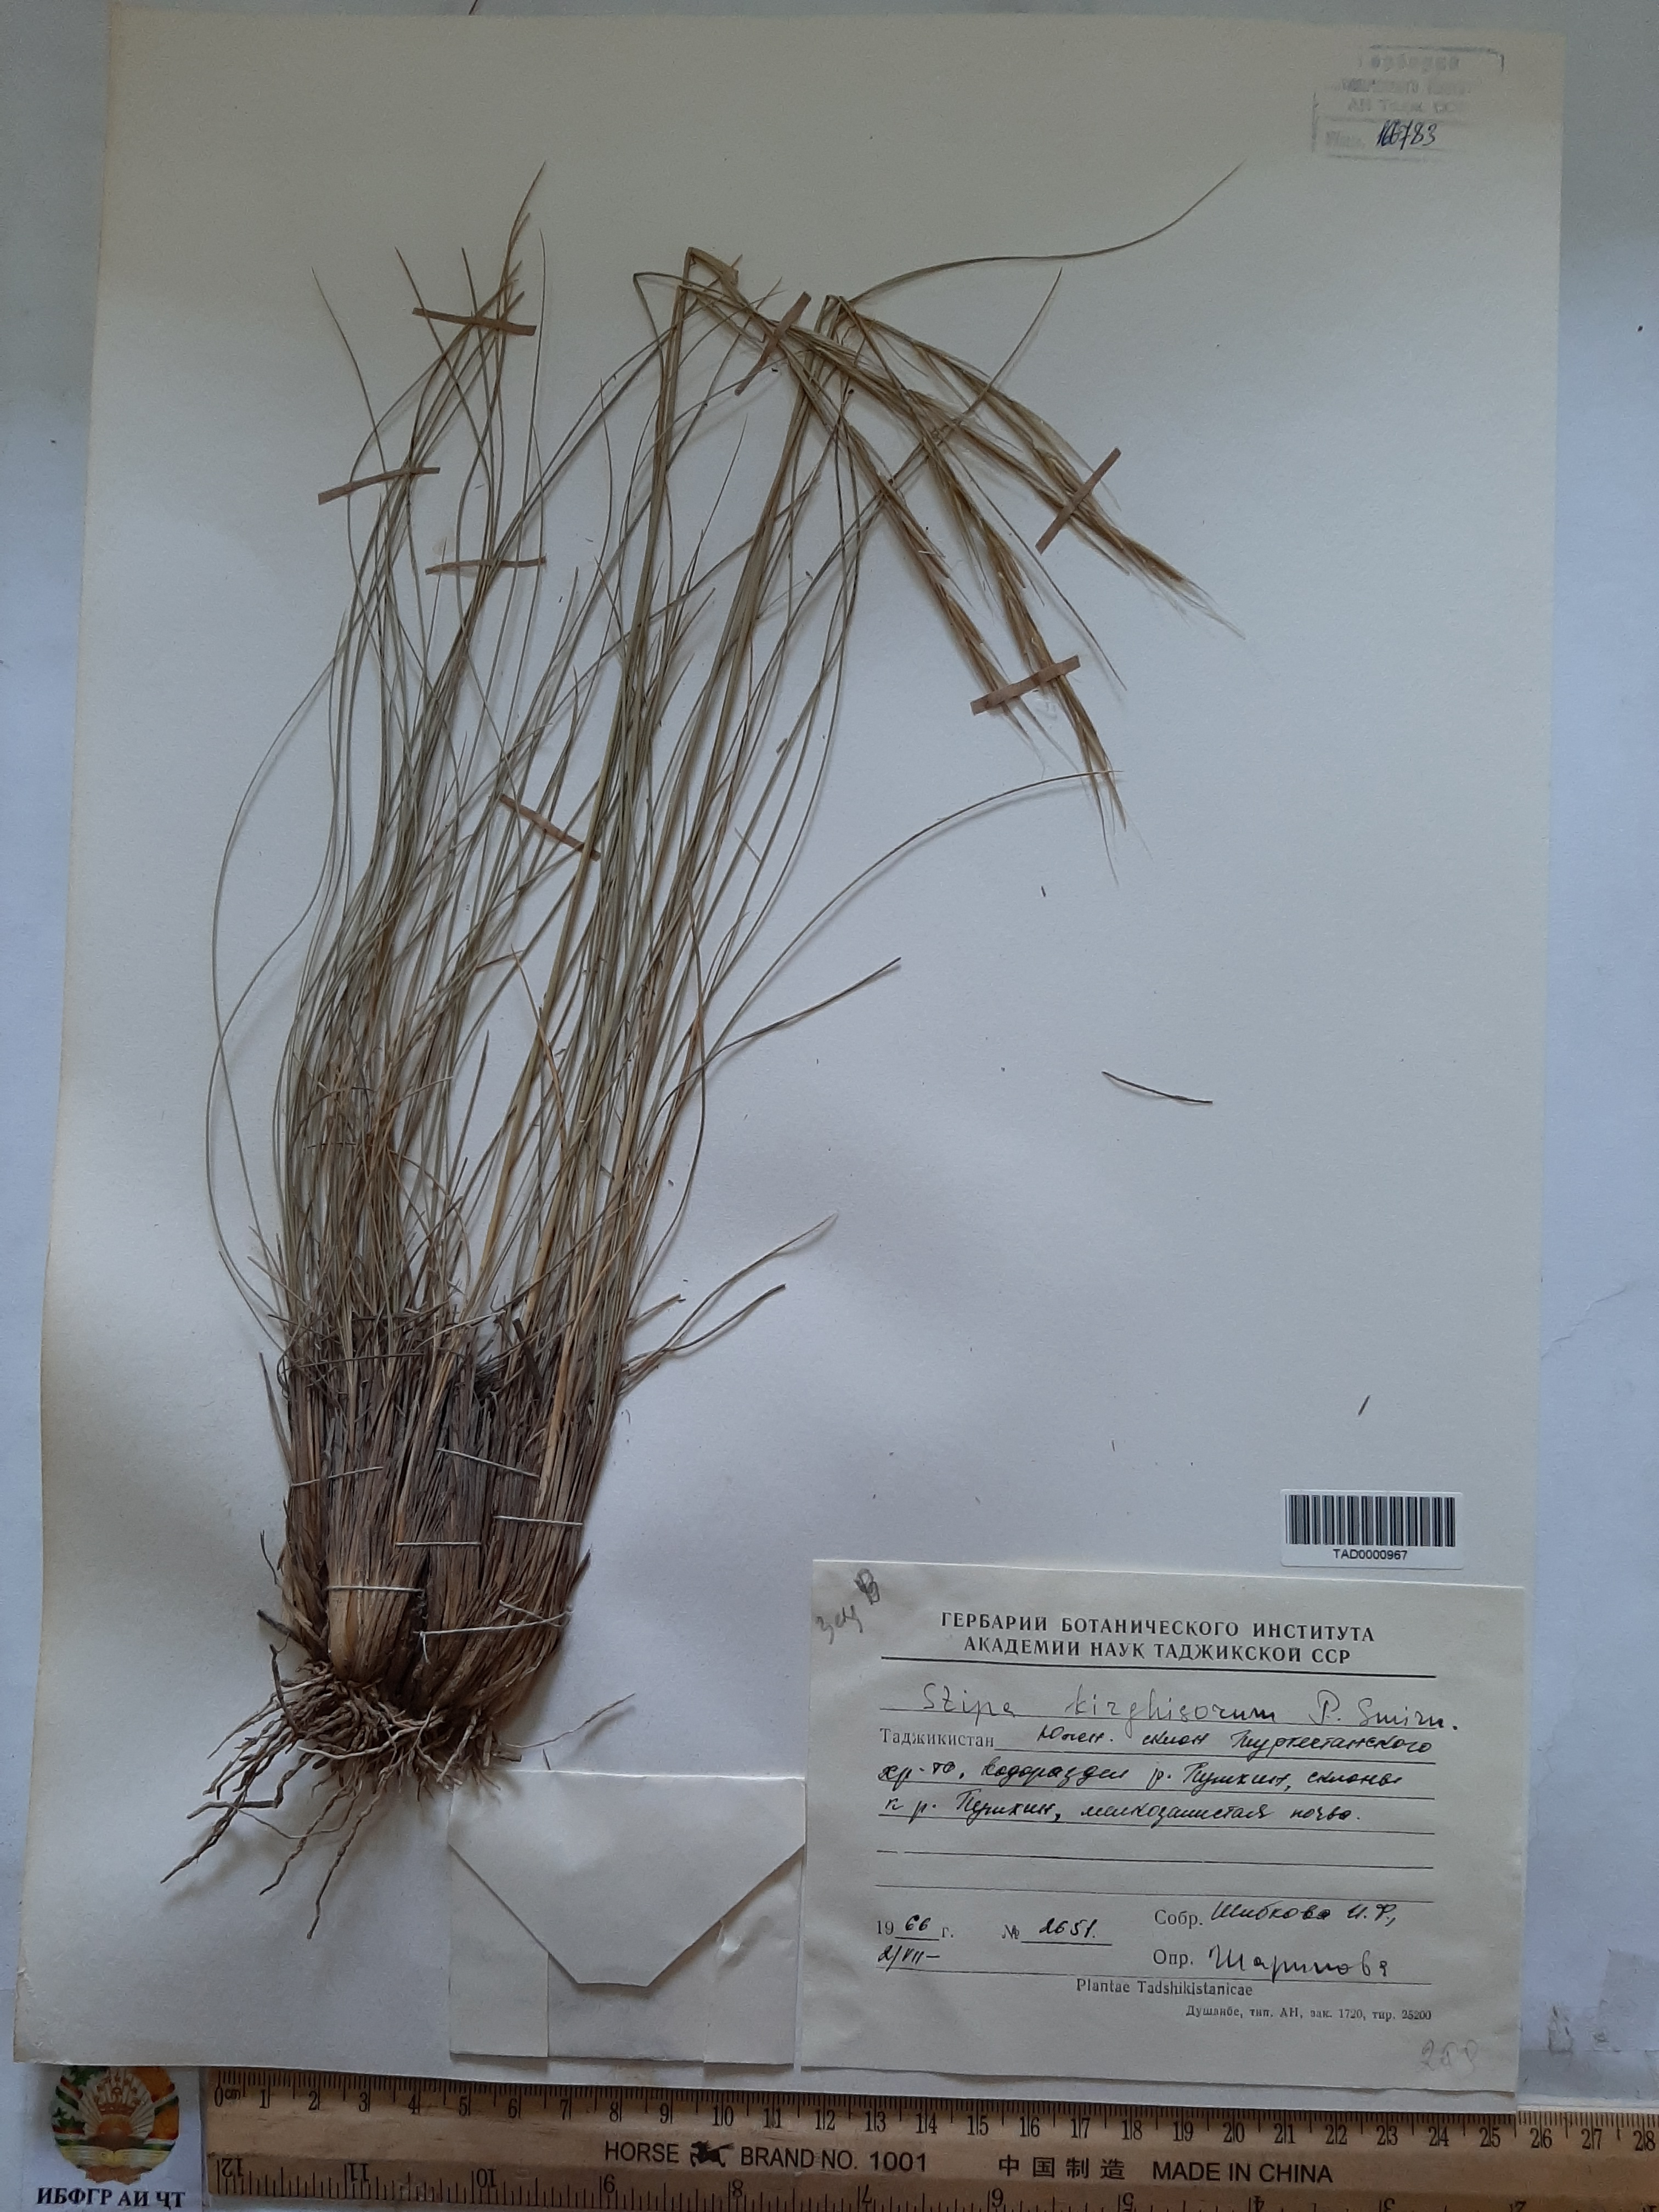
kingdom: Plantae
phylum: Tracheophyta
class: Liliopsida
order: Poales
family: Poaceae
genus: Stipa
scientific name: Stipa kirghisorum
